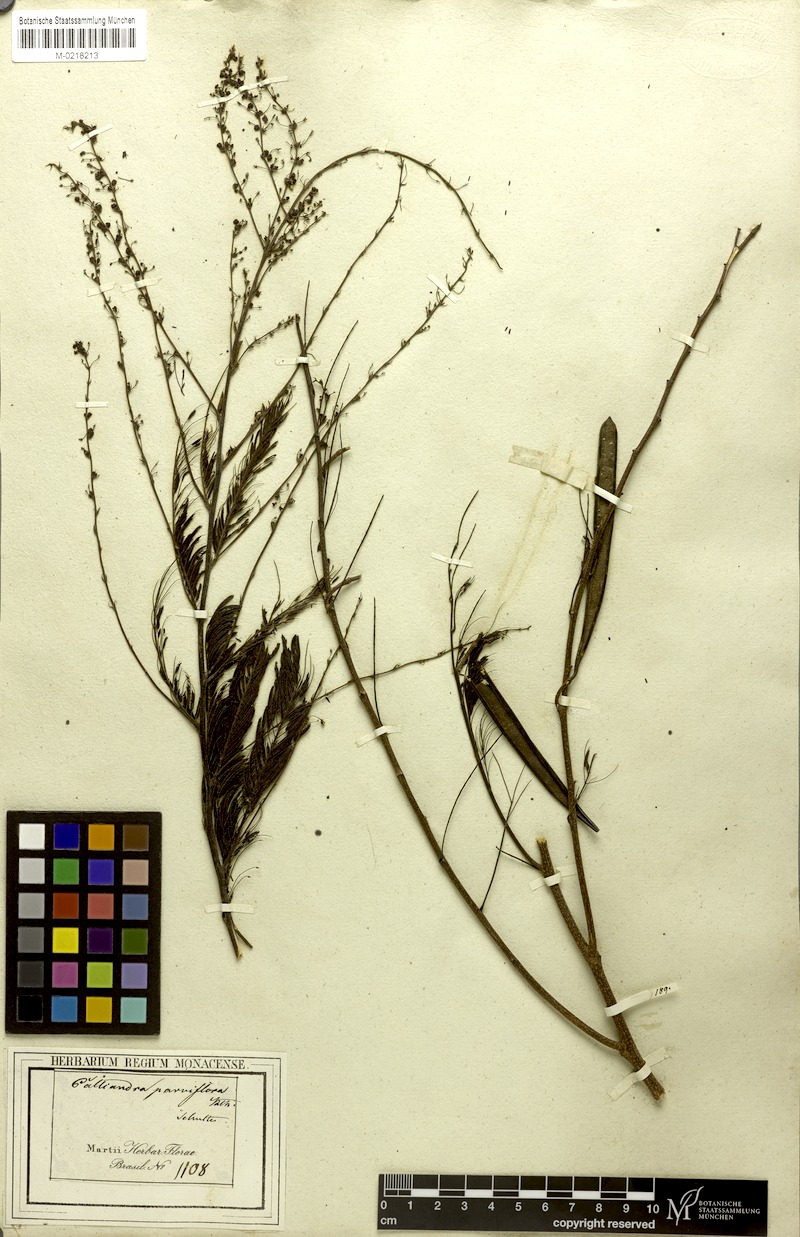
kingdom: Plantae
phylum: Tracheophyta
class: Magnoliopsida
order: Fabales
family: Fabaceae
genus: Calliandra
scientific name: Calliandra parviflora
